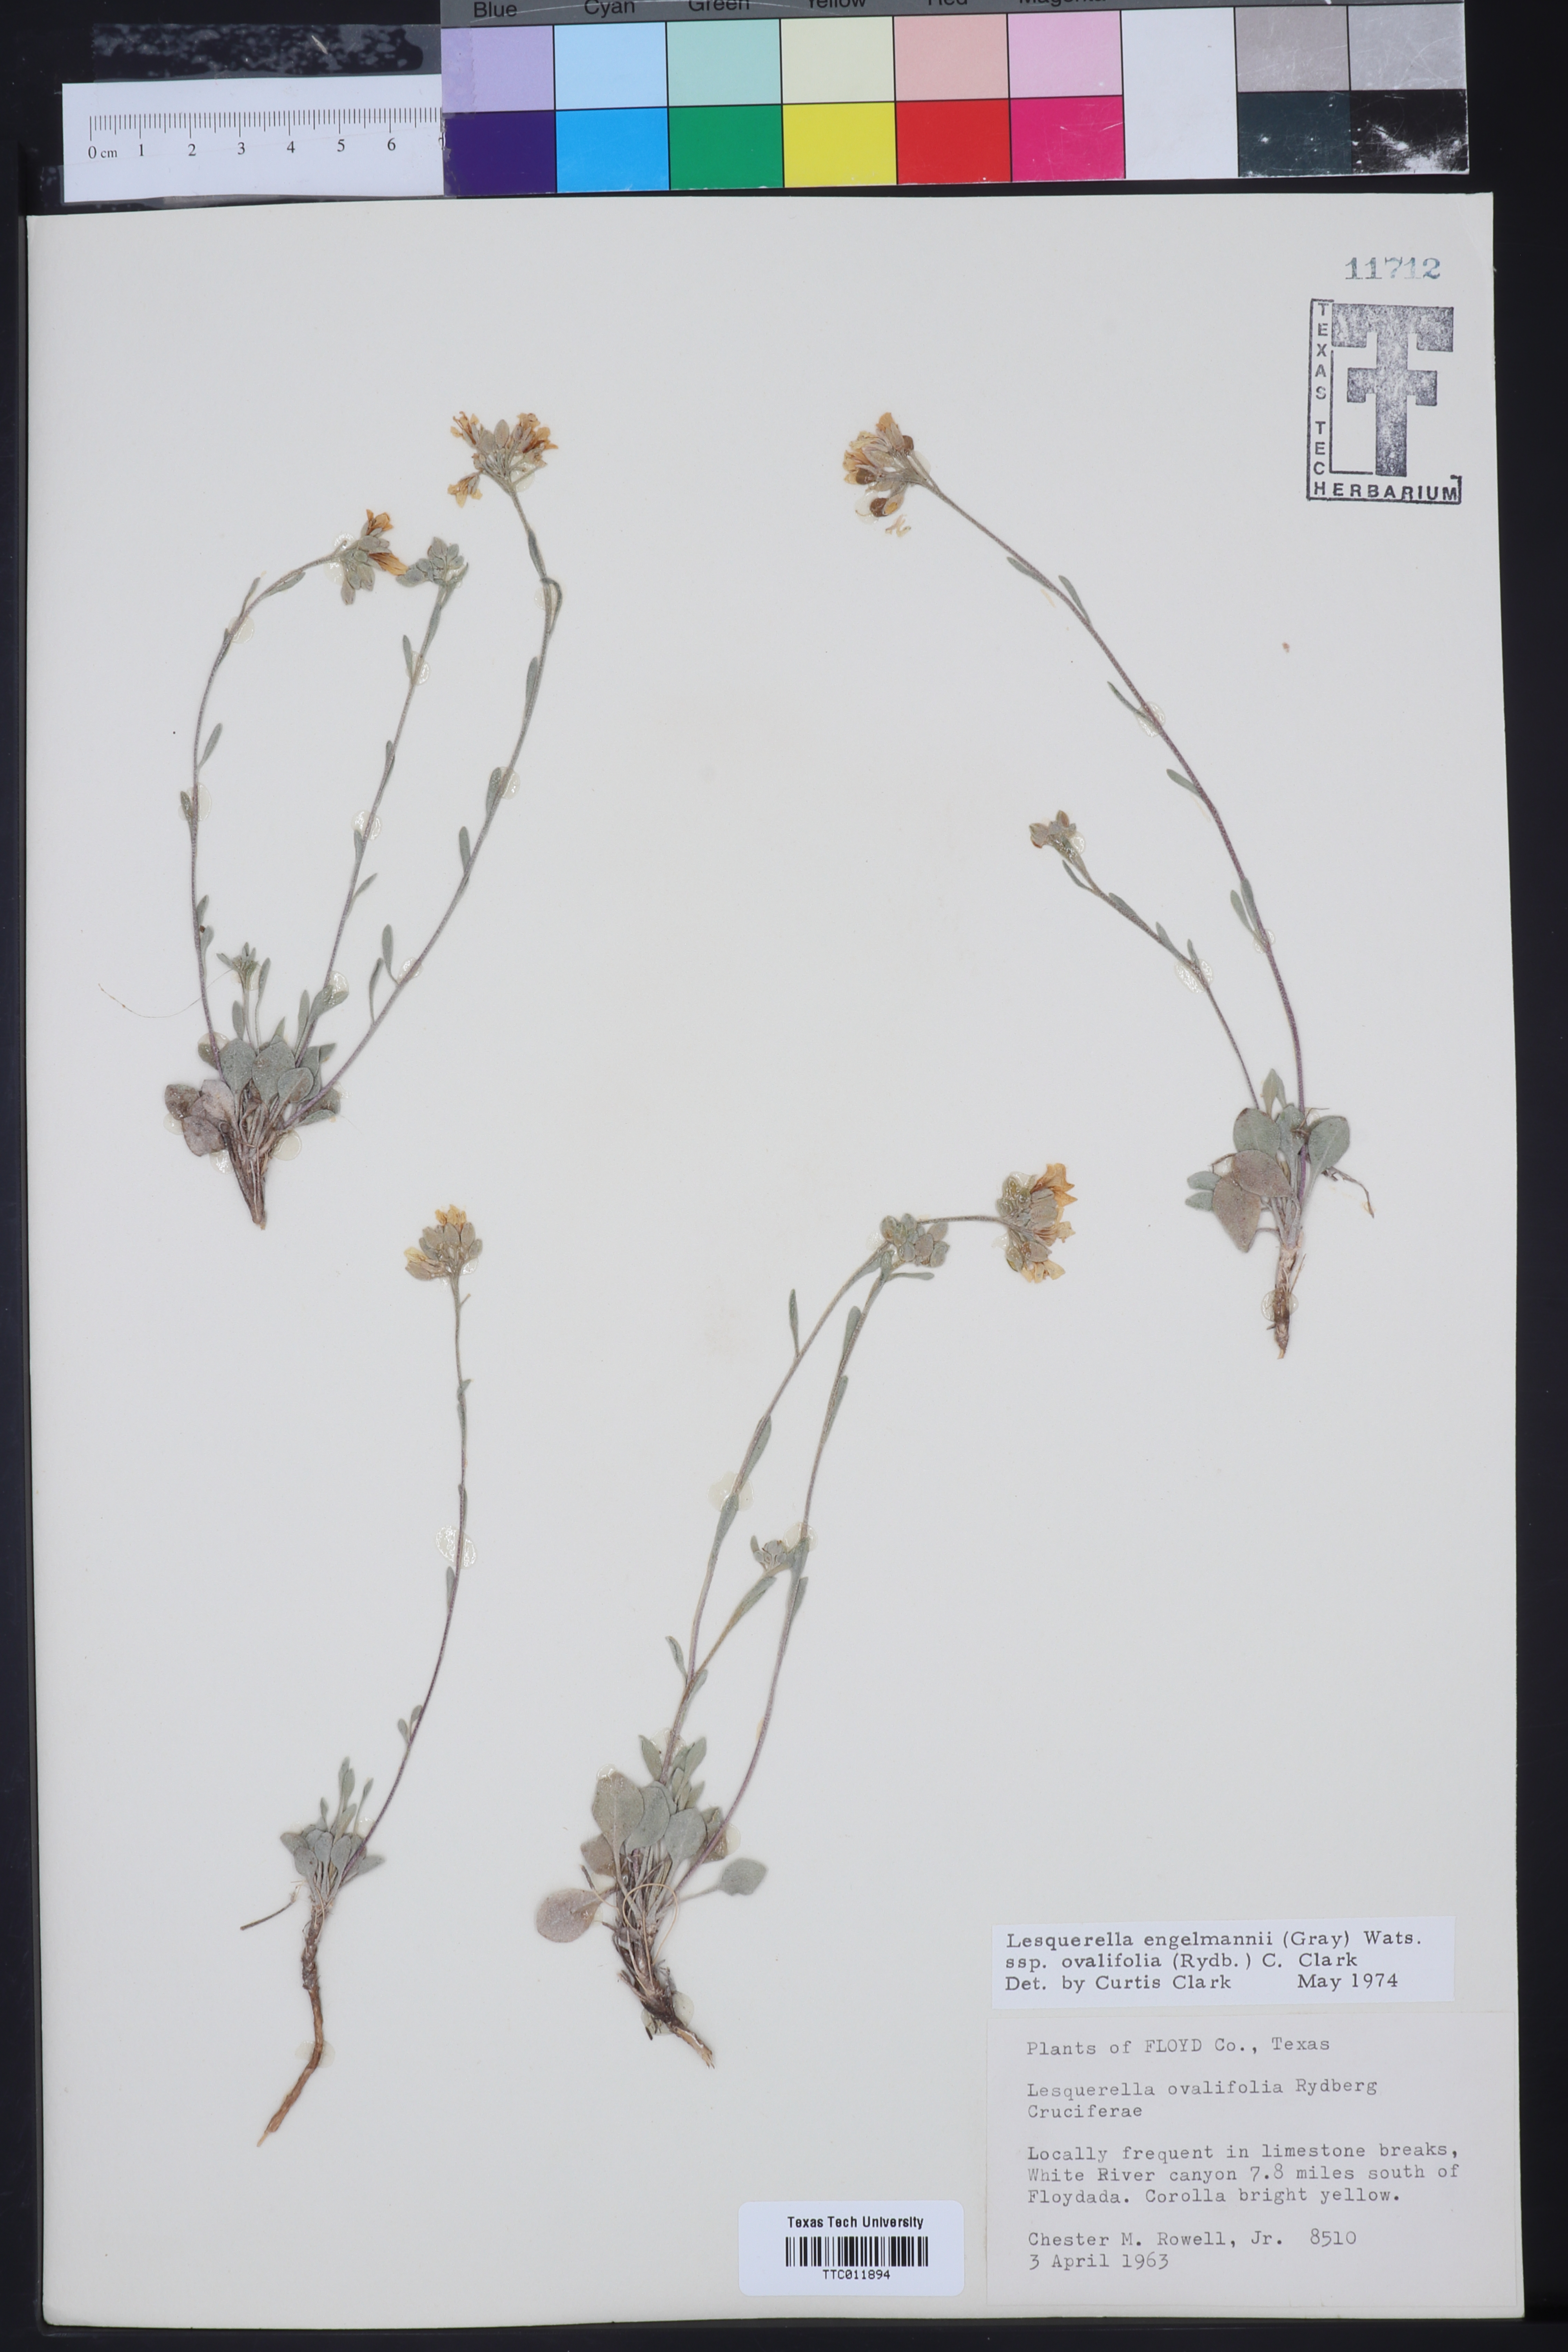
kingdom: Plantae
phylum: Tracheophyta
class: Magnoliopsida
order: Brassicales
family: Brassicaceae
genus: Physaria
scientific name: Physaria ovalifolia
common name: Round-leaf bladderpod
